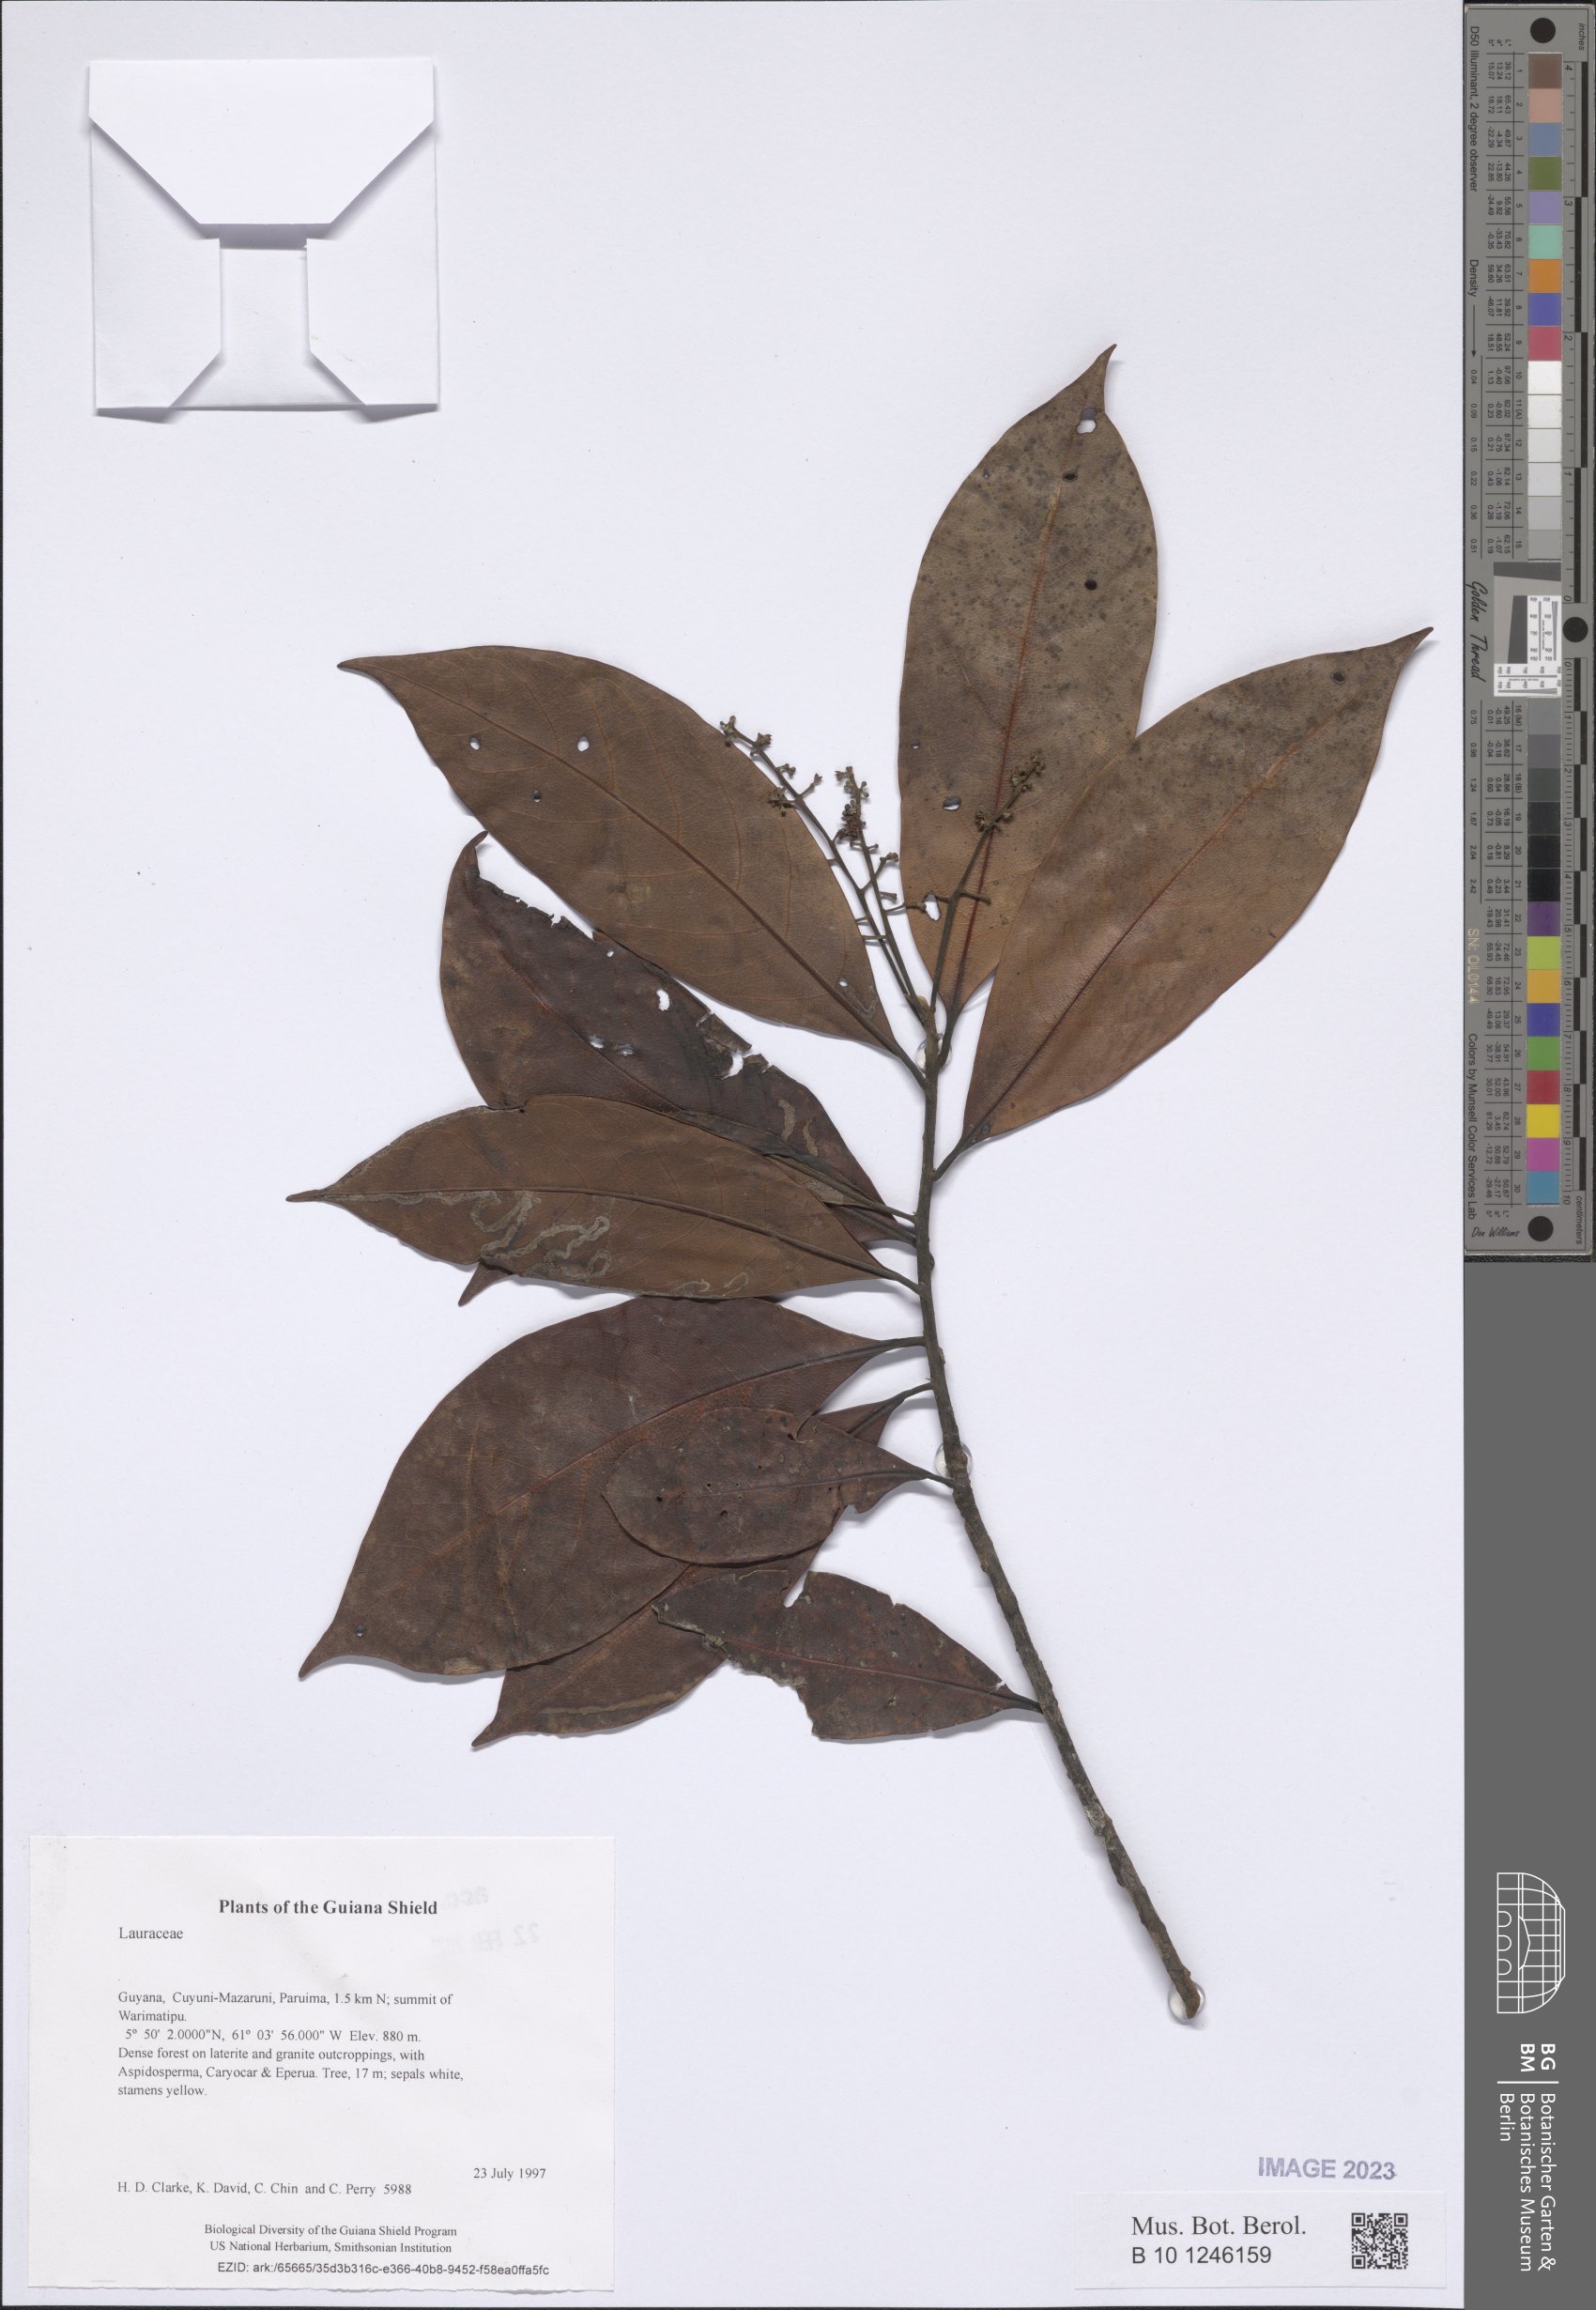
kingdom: Plantae
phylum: Tracheophyta
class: Magnoliopsida
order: Laurales
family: Lauraceae
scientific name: Lauraceae
